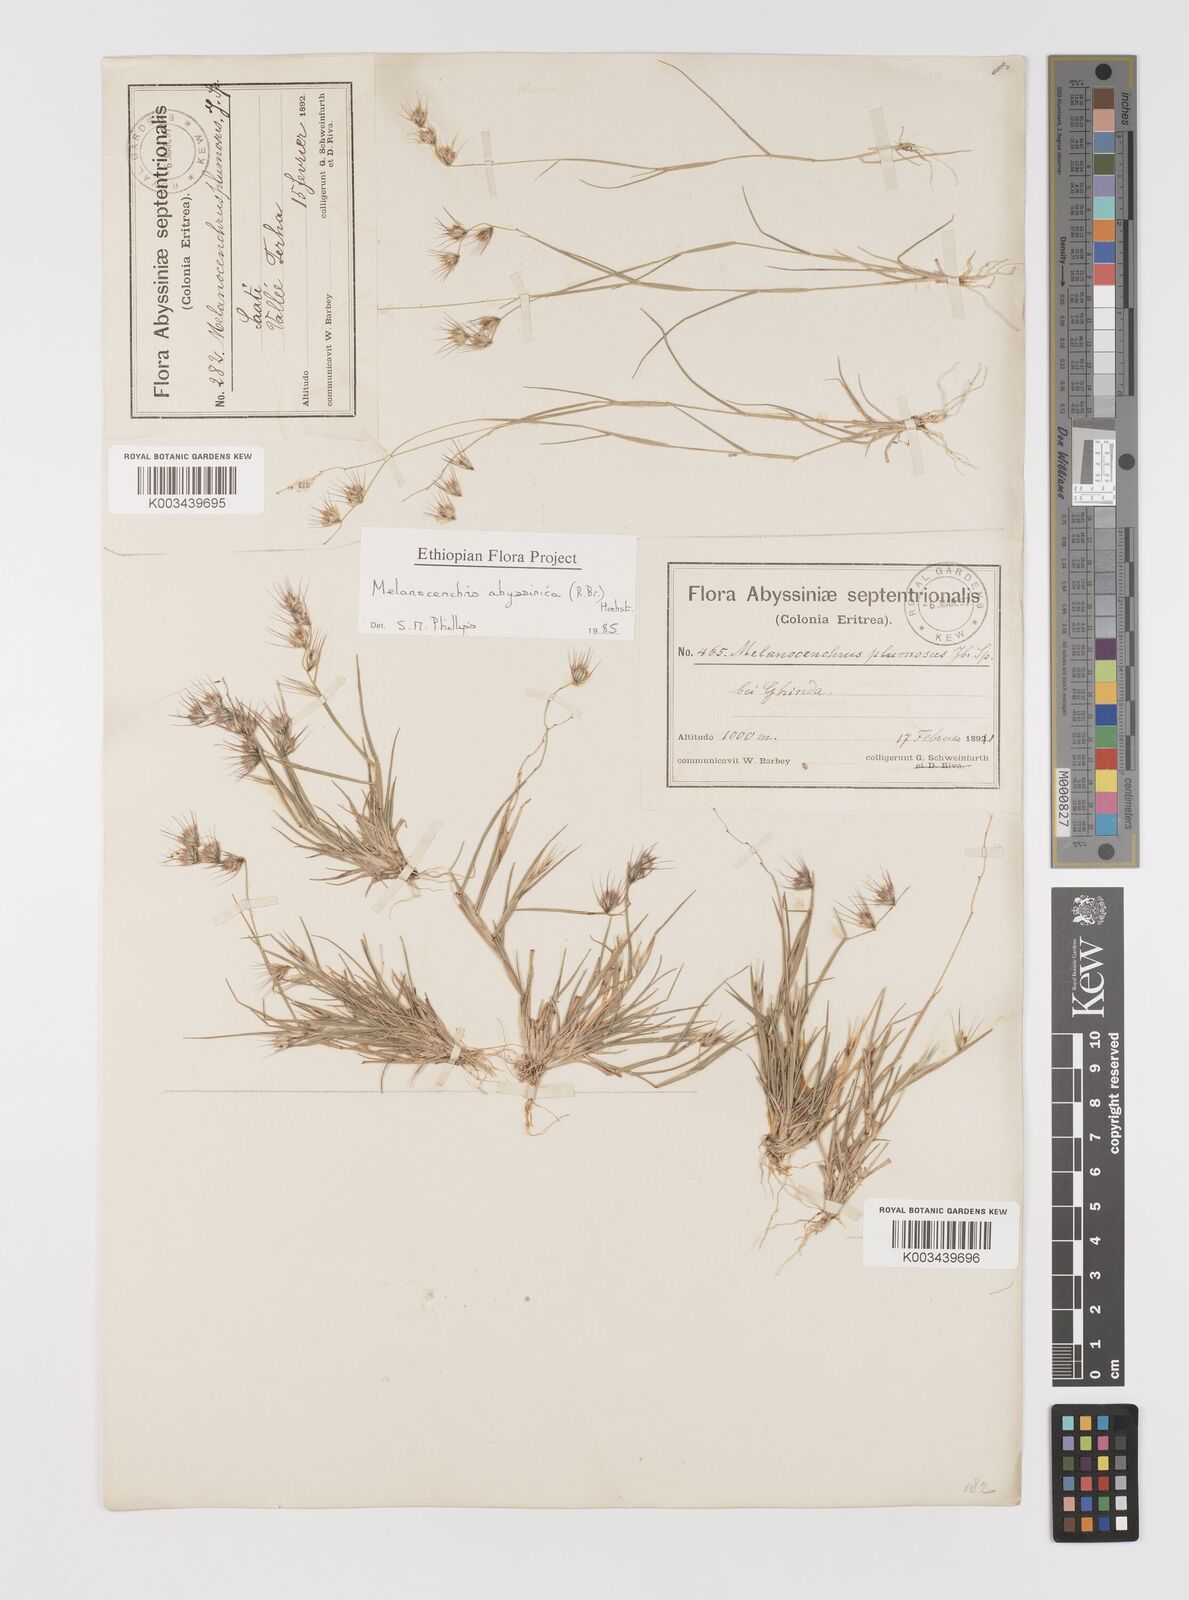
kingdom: Plantae
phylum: Tracheophyta
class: Liliopsida
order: Poales
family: Poaceae
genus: Melanocenchris
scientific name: Melanocenchris abyssinica
